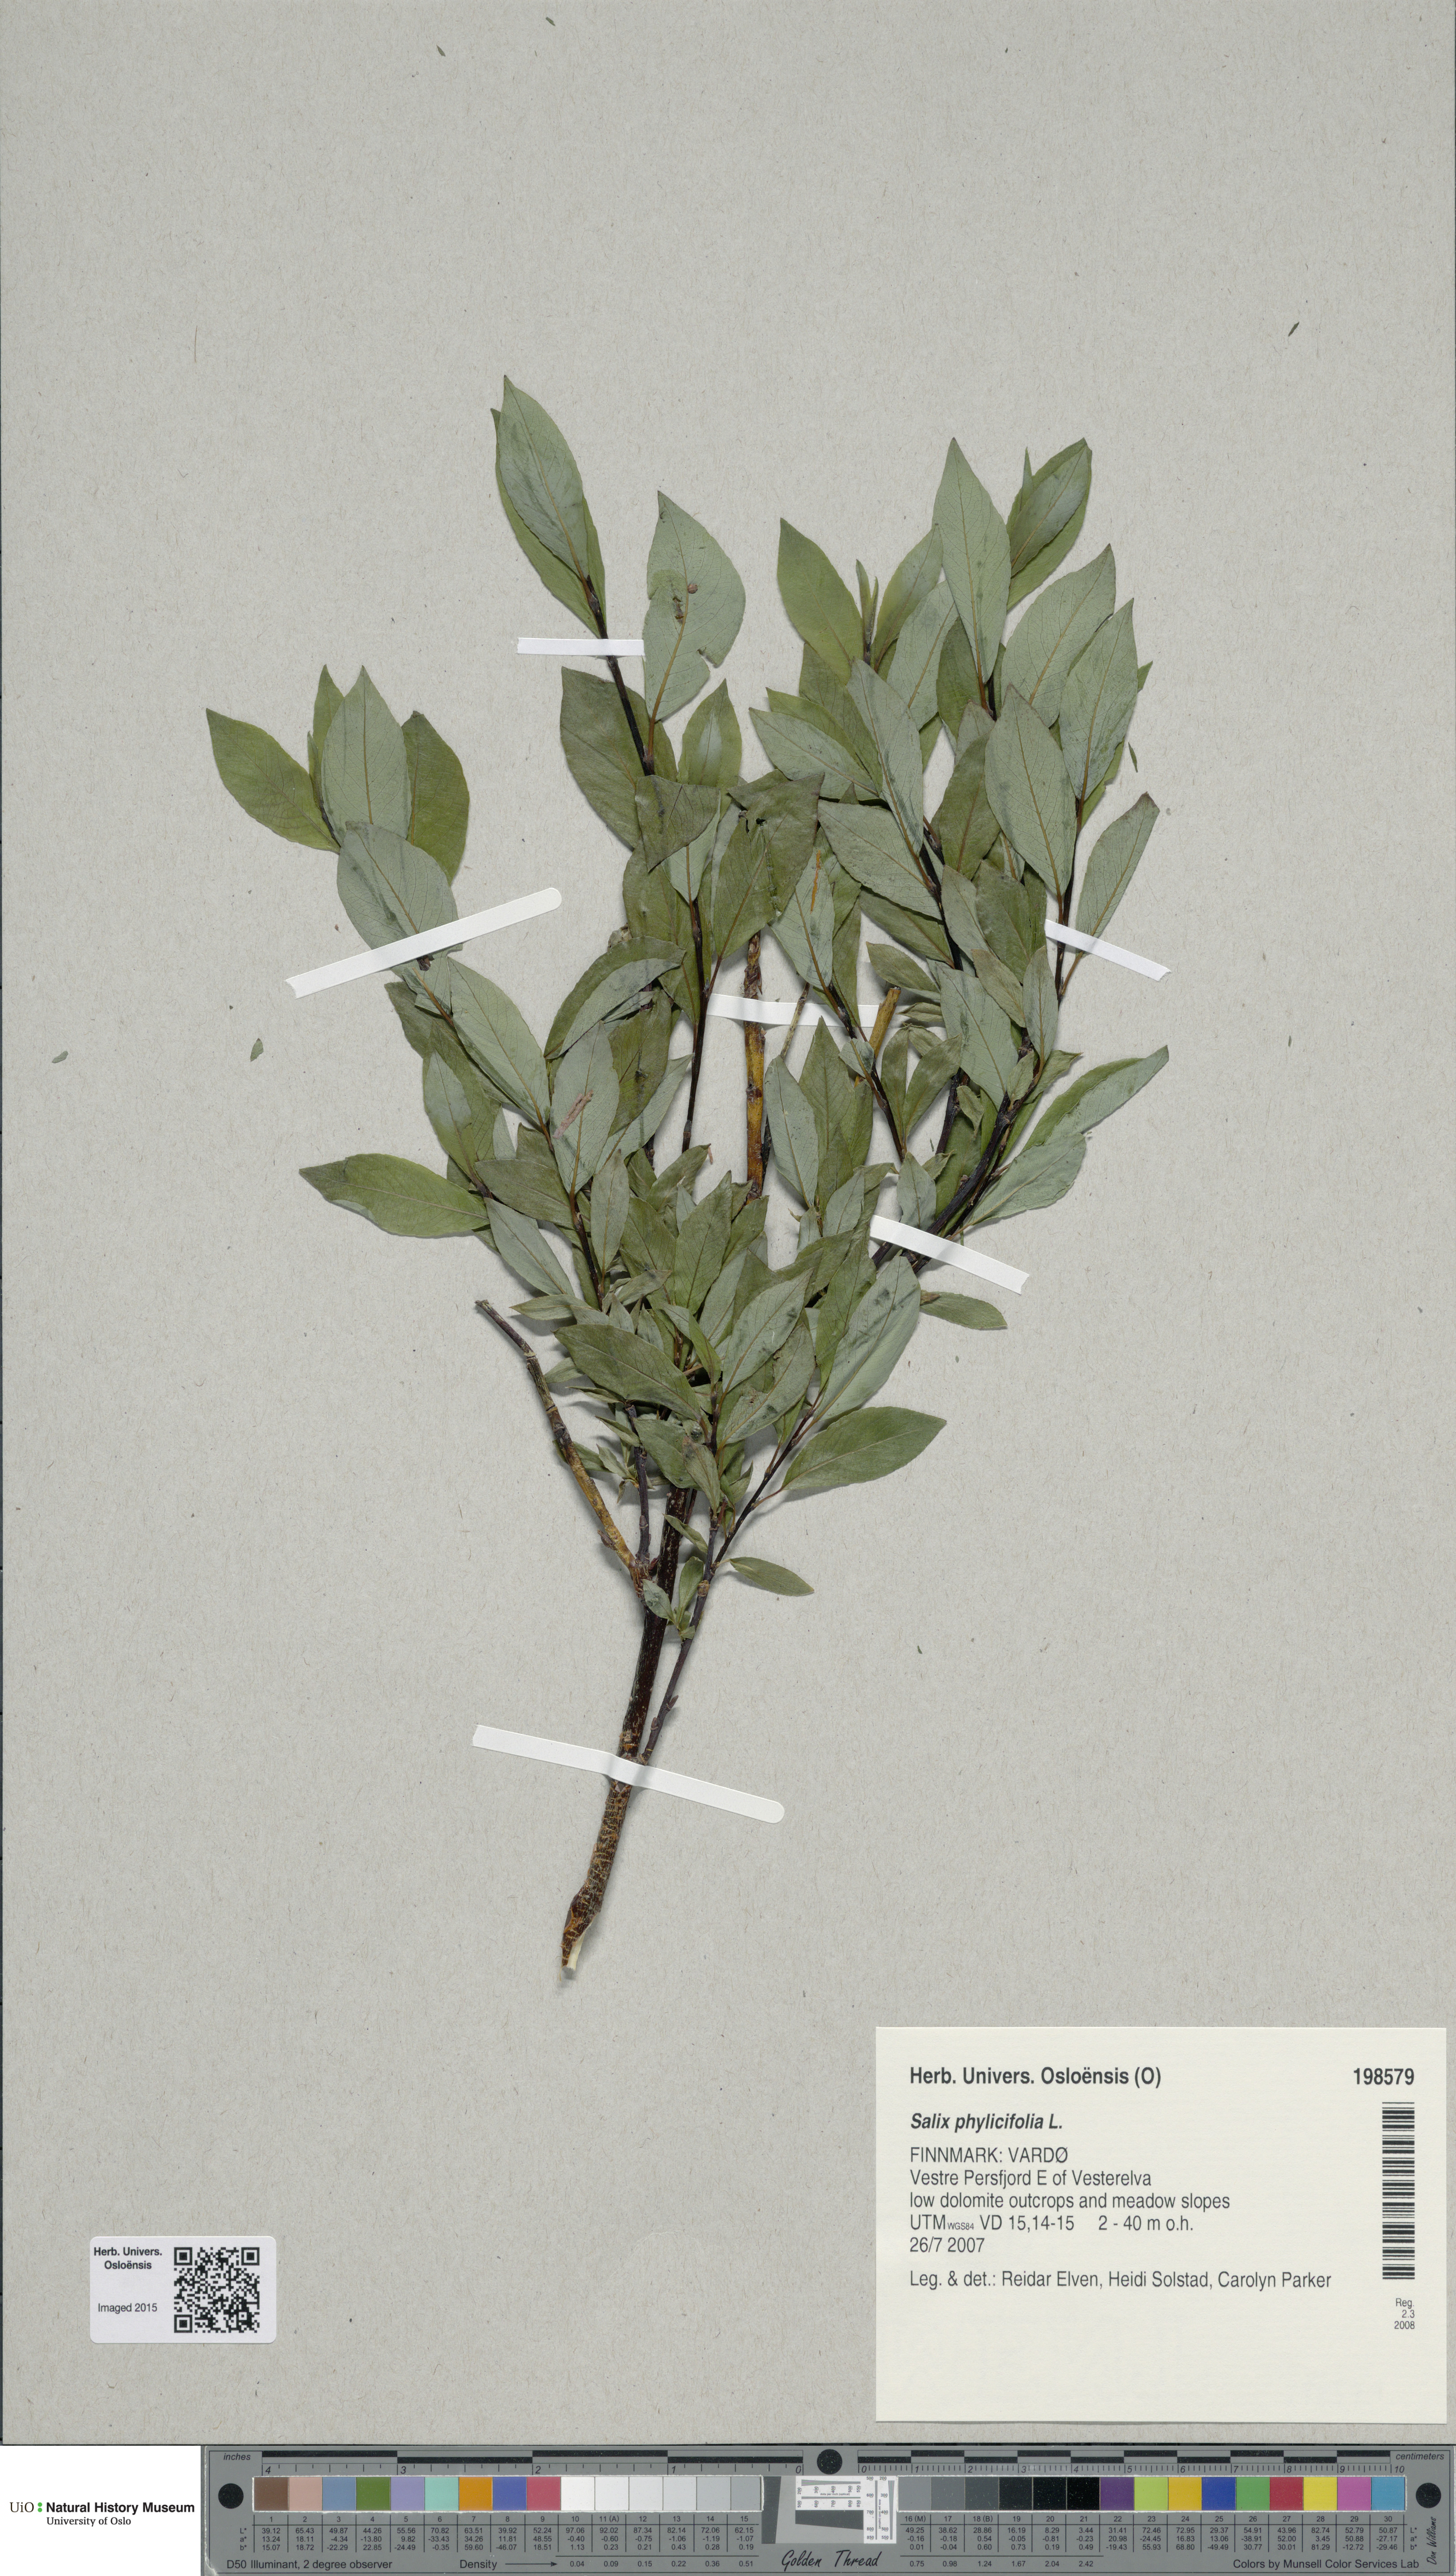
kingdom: Plantae
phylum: Tracheophyta
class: Magnoliopsida
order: Malpighiales
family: Salicaceae
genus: Salix
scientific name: Salix phylicifolia
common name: Tea-leaved willow
